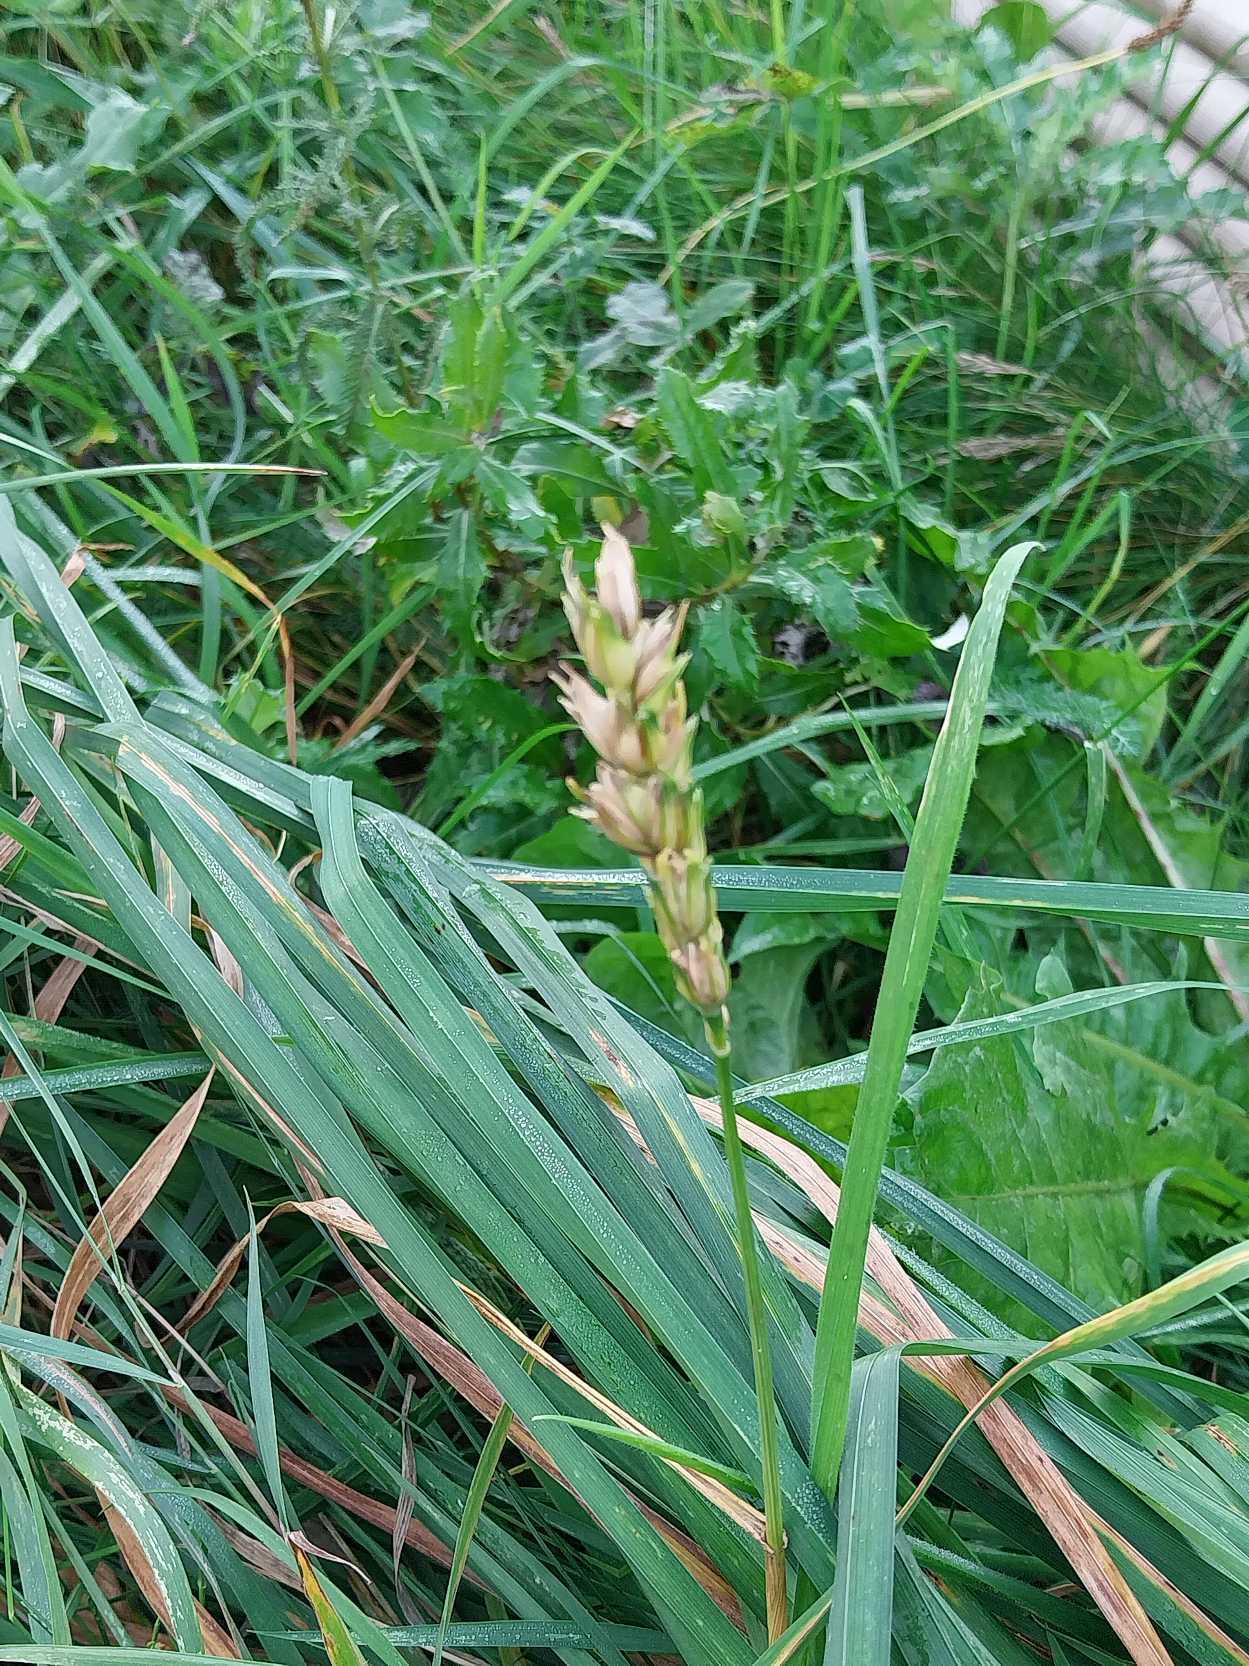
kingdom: Plantae
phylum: Tracheophyta
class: Liliopsida
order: Poales
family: Poaceae
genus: Triticum
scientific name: Triticum aestivum
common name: Almindelig hvede
